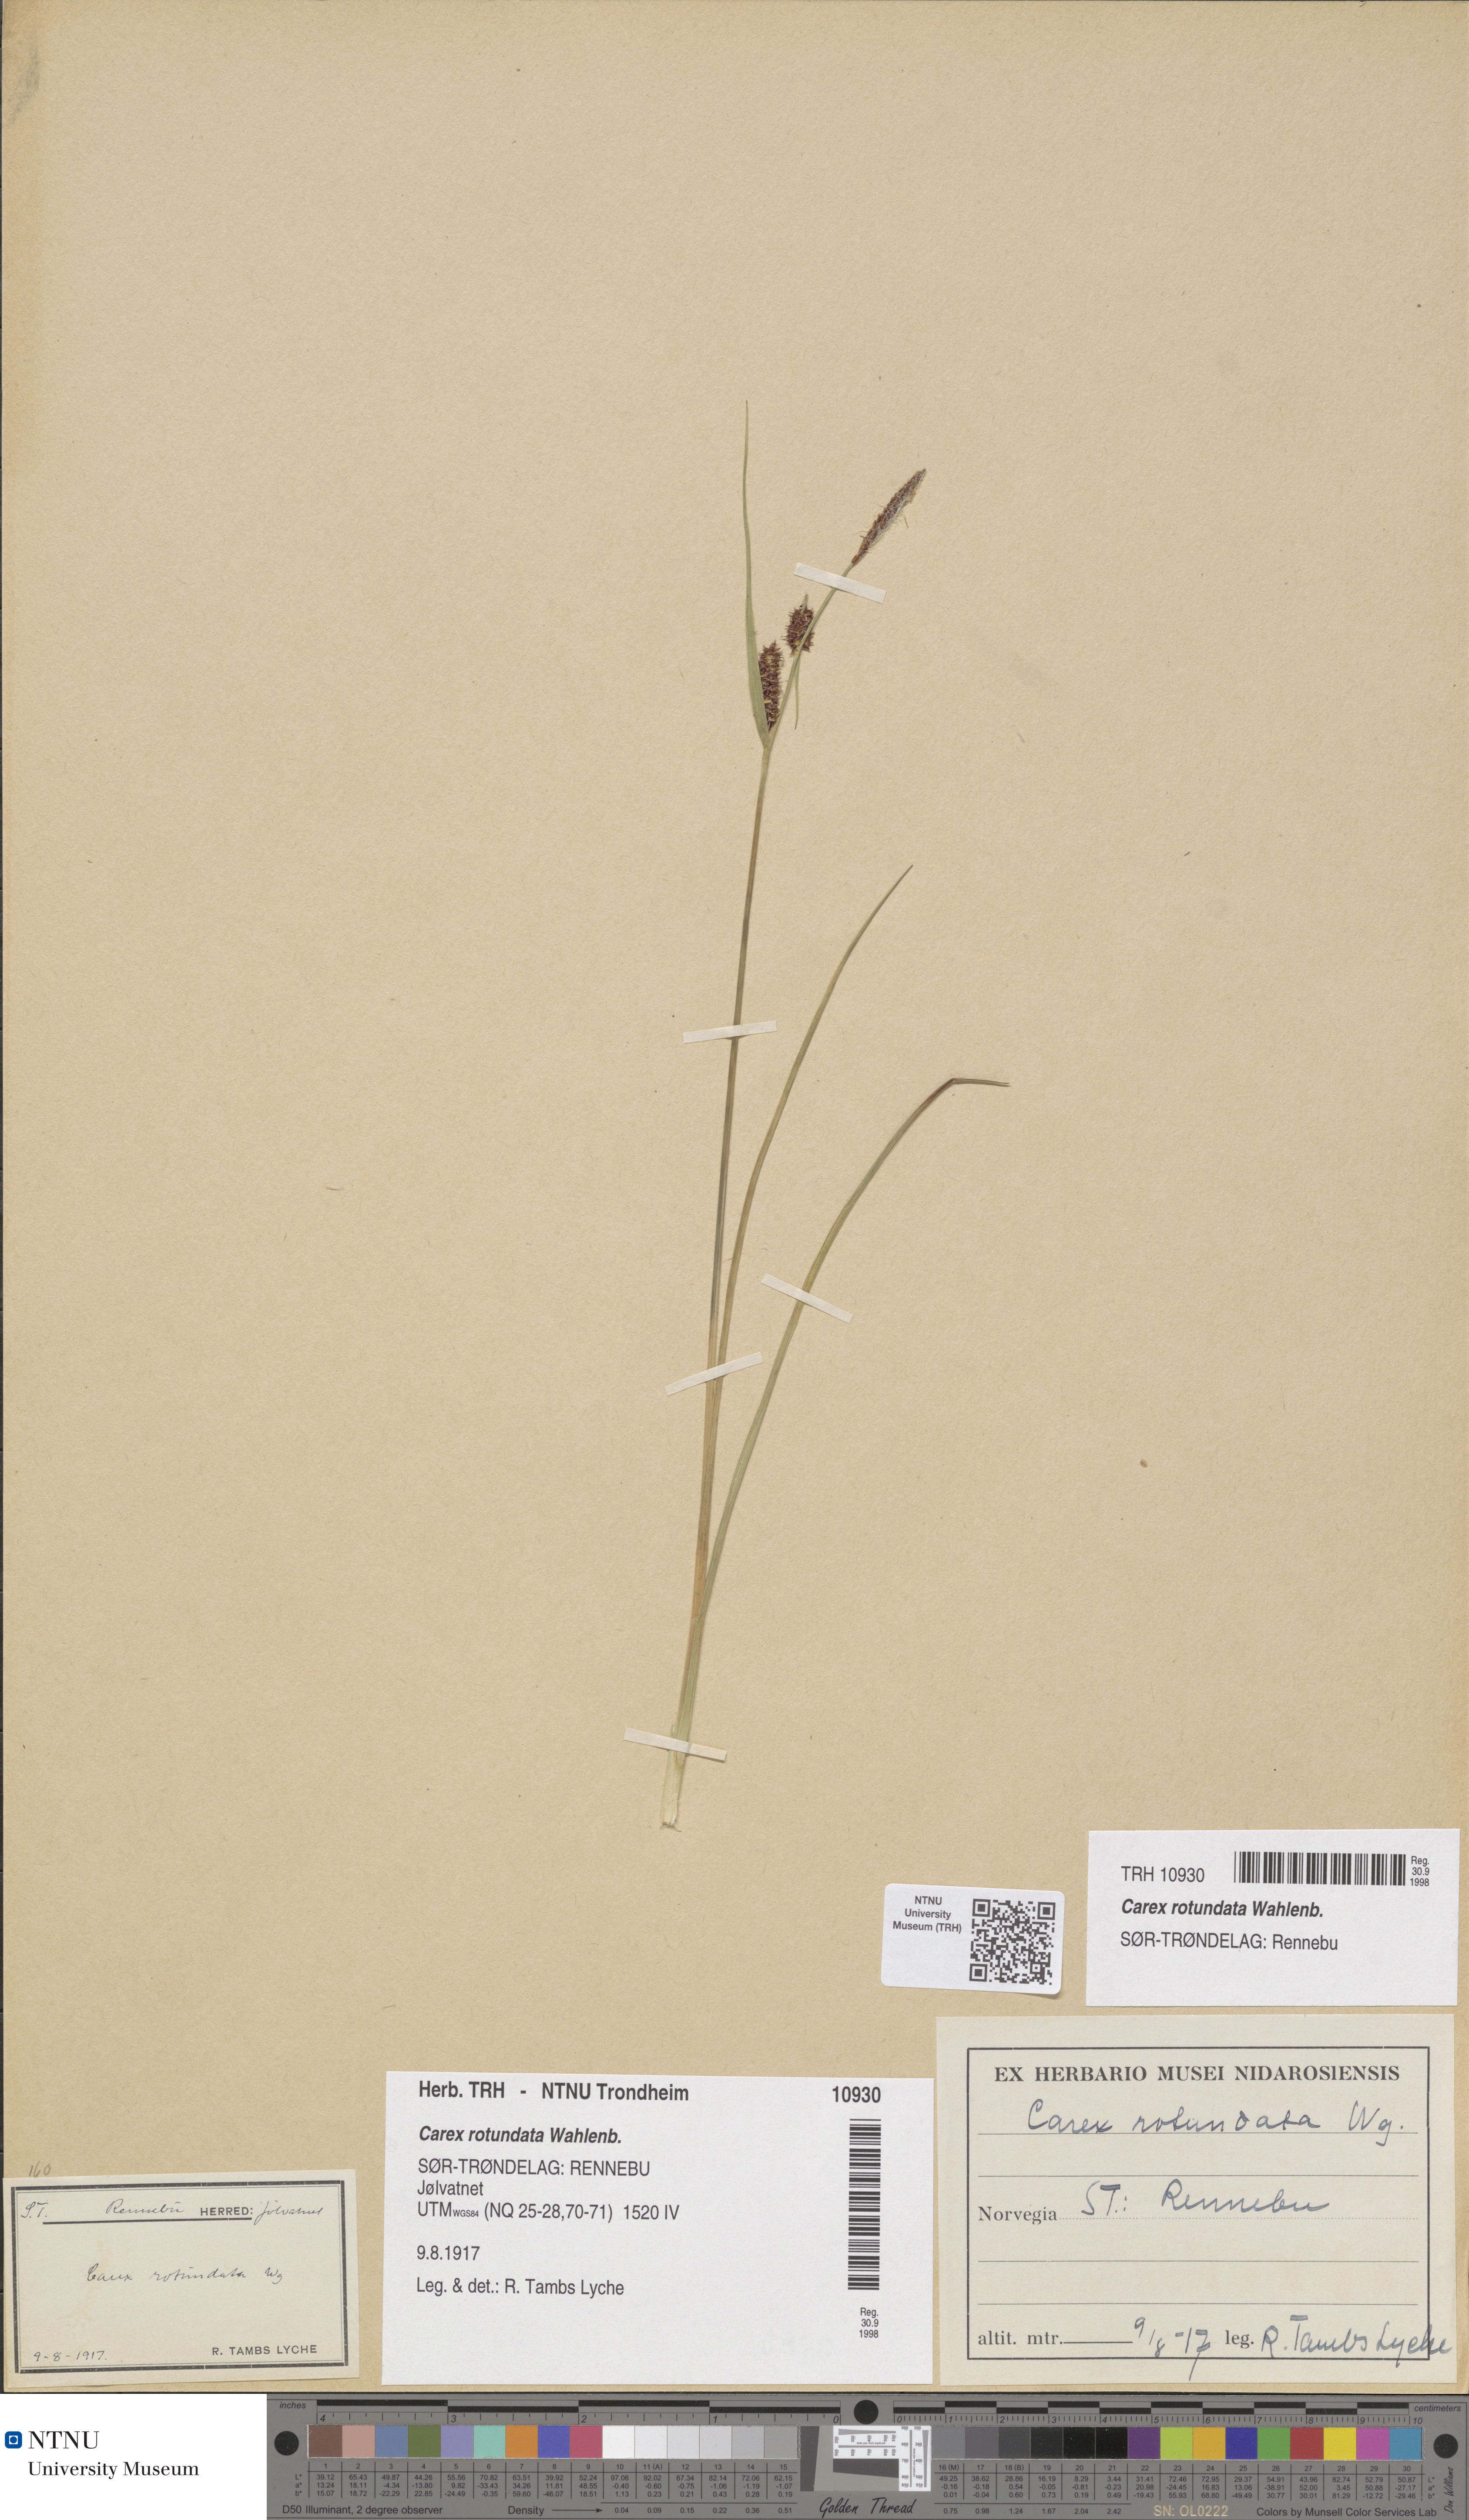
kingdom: Plantae
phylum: Tracheophyta
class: Liliopsida
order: Poales
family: Cyperaceae
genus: Carex
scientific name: Carex rotundata
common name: Round-fruited sedge
